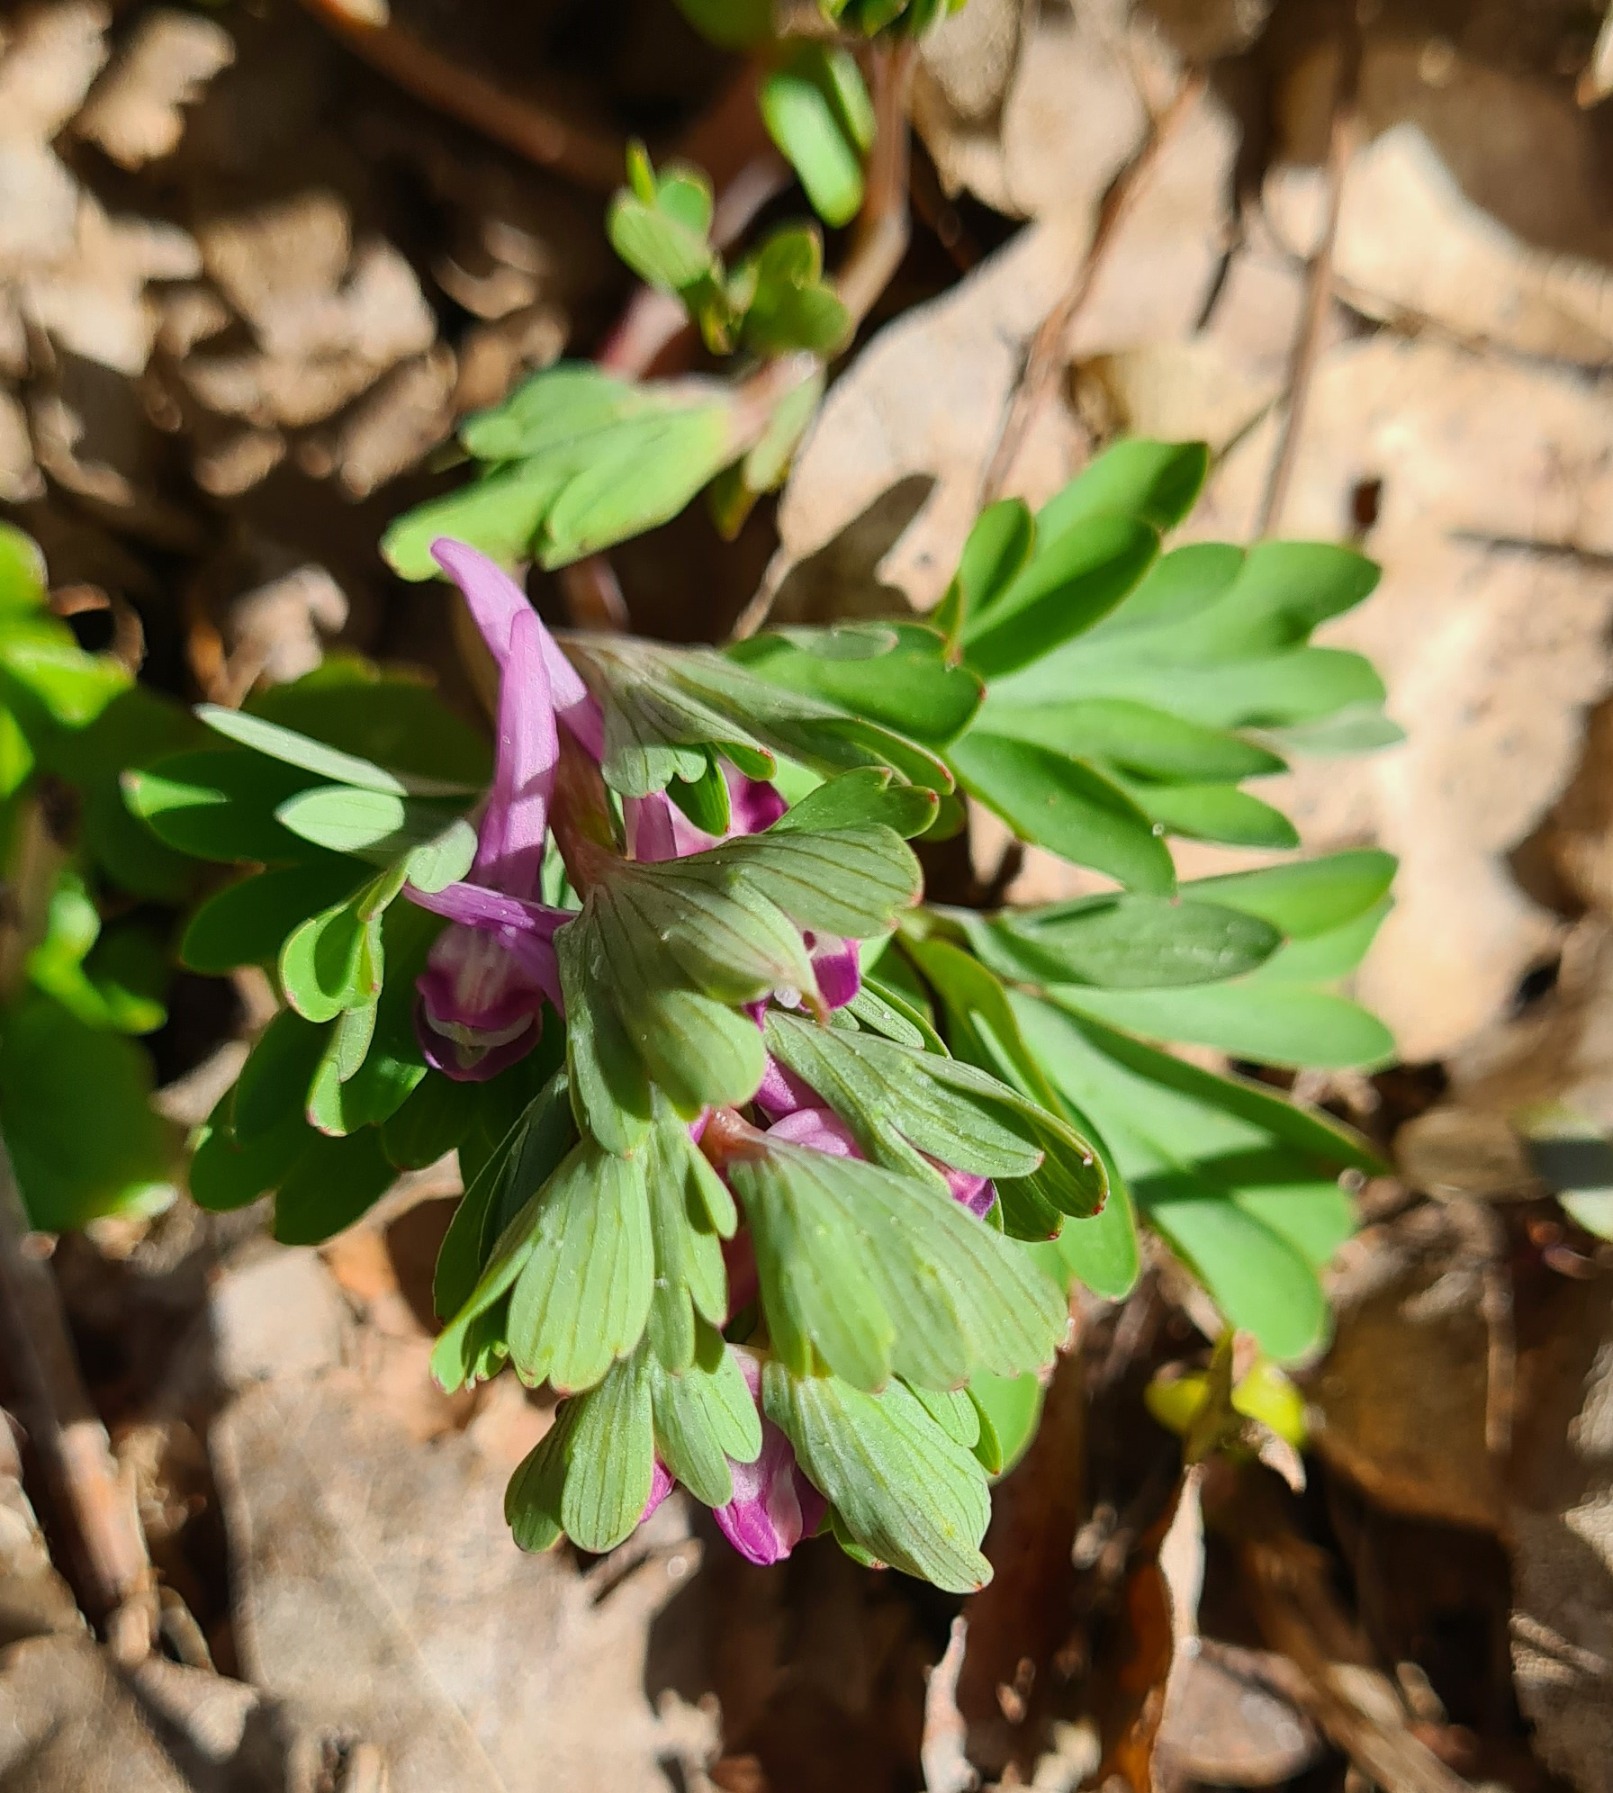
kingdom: Plantae
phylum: Tracheophyta
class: Magnoliopsida
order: Ranunculales
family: Papaveraceae
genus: Corydalis
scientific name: Corydalis pumila
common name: Finger-lærkespore
